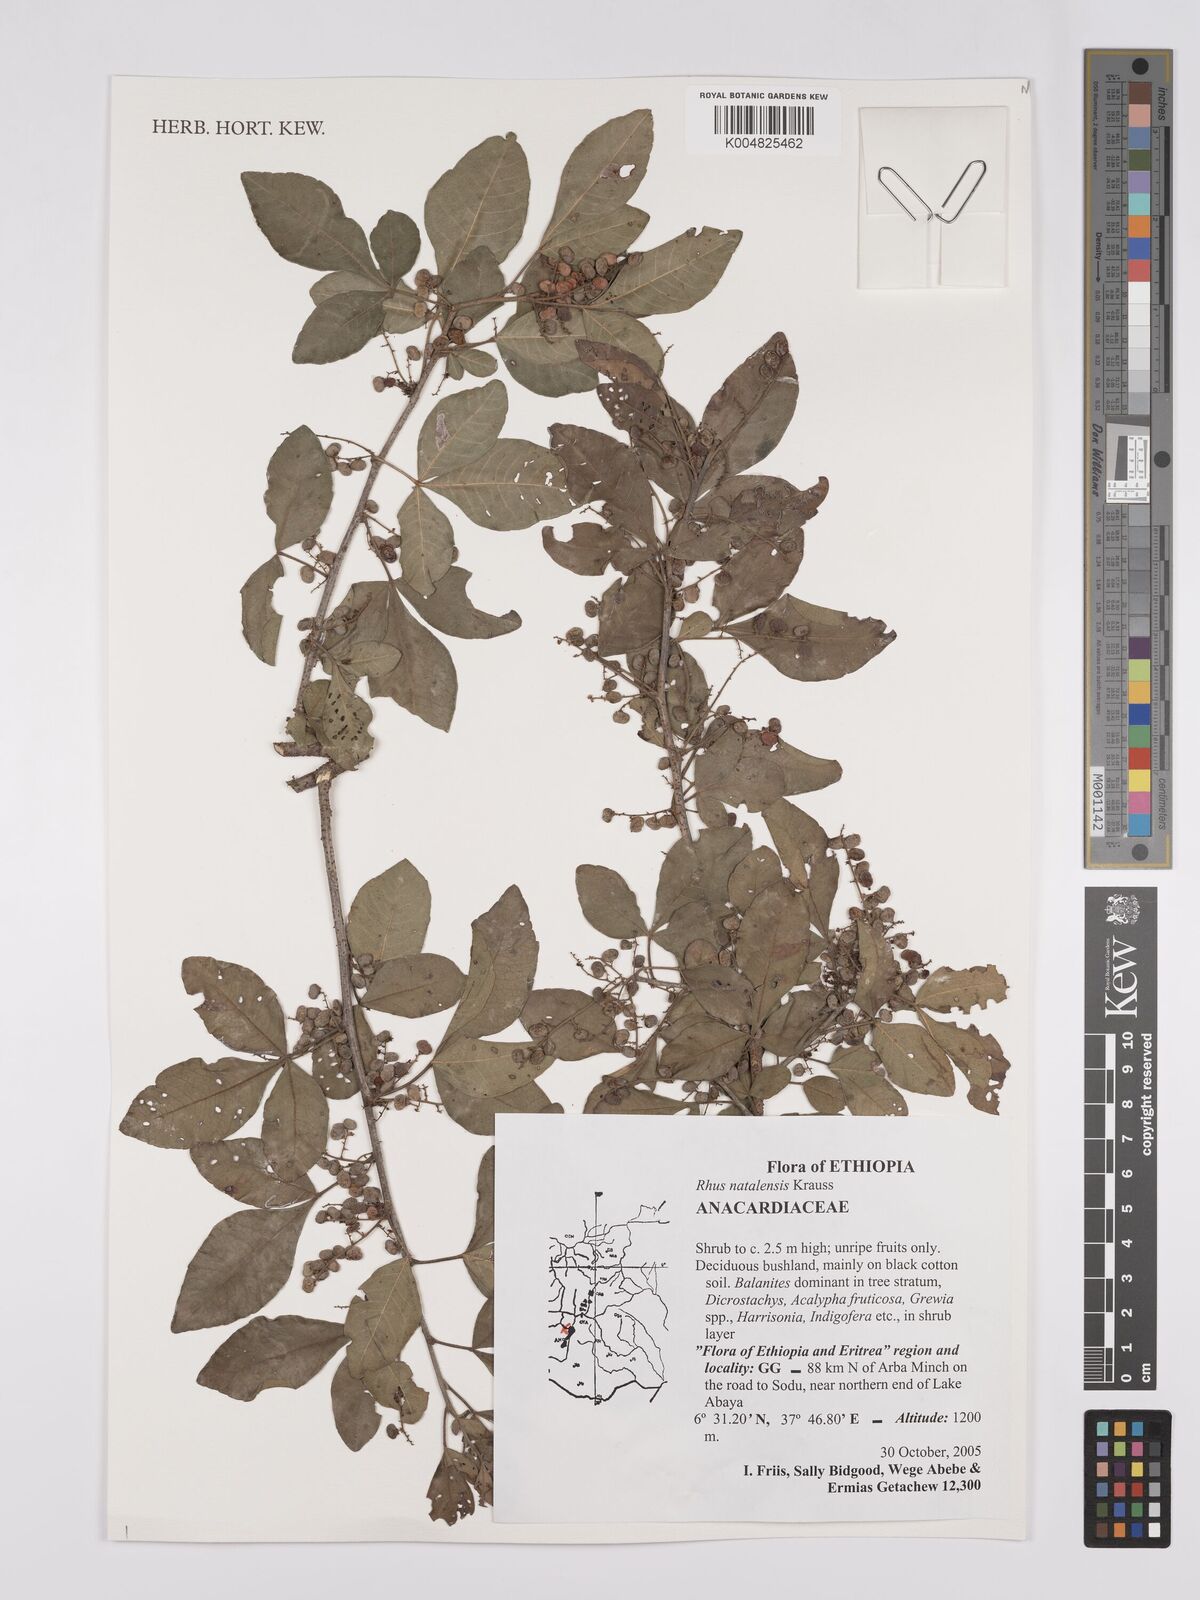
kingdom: Plantae
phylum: Tracheophyta
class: Magnoliopsida
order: Sapindales
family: Anacardiaceae
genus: Searsia
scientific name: Searsia natalensis
